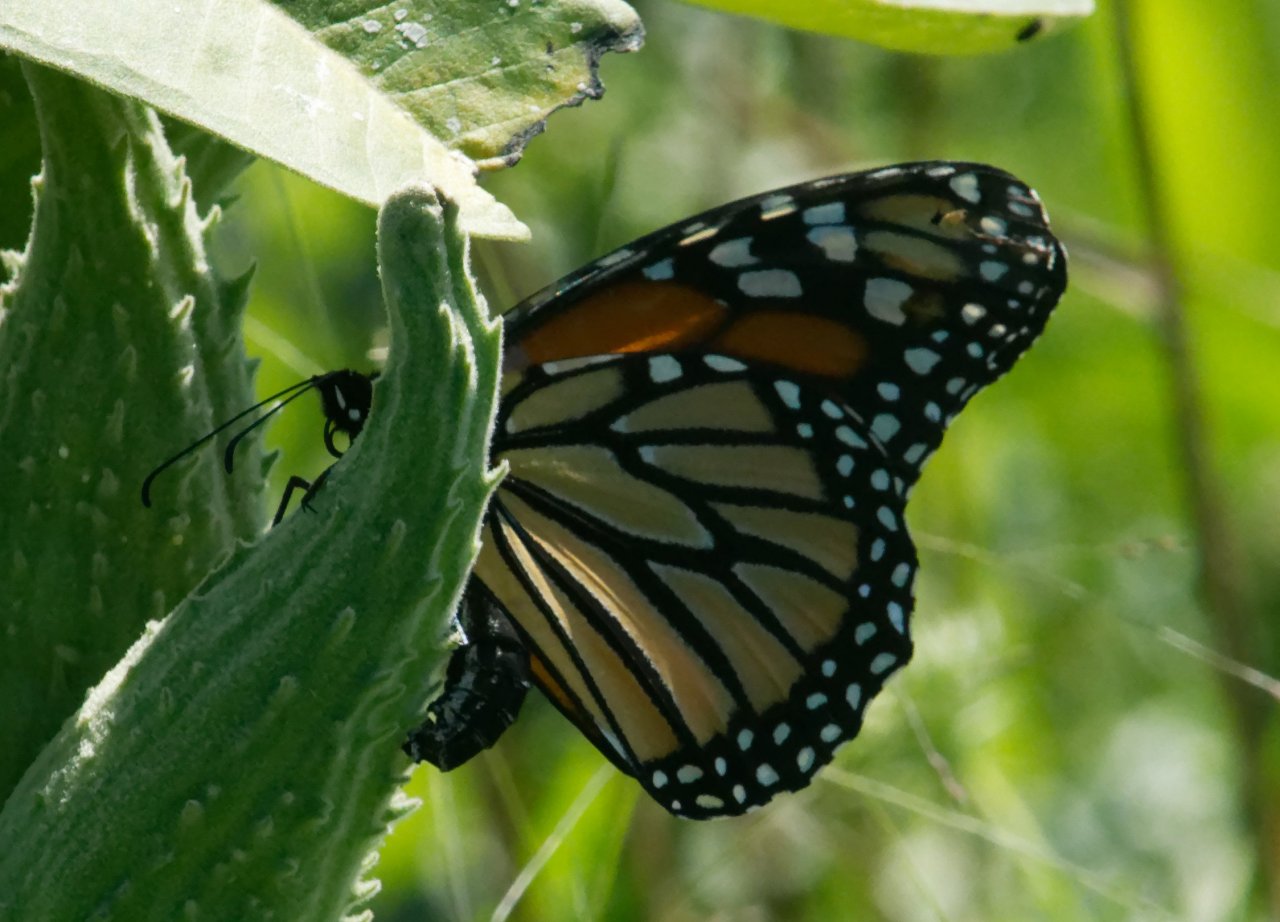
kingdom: Animalia
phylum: Arthropoda
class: Insecta
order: Lepidoptera
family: Nymphalidae
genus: Danaus
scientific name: Danaus plexippus
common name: Monarch
